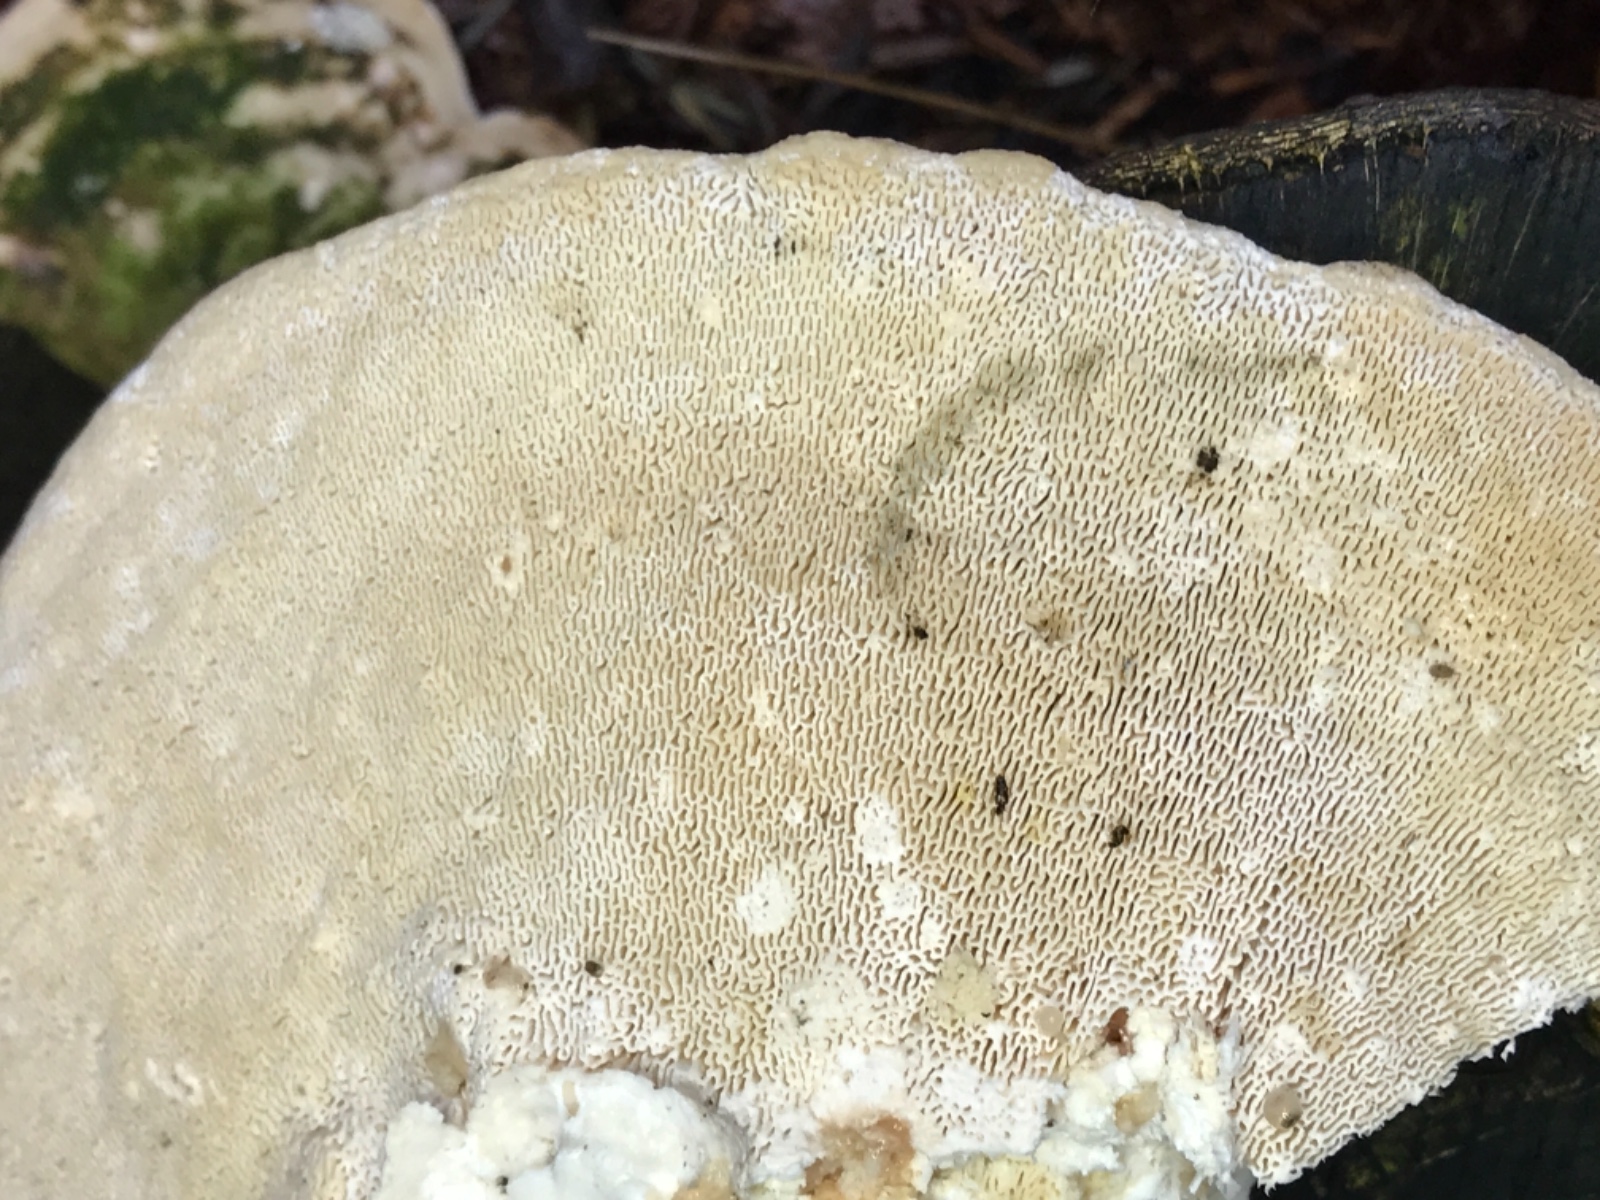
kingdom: Fungi
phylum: Basidiomycota
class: Agaricomycetes
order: Polyporales
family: Polyporaceae
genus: Trametes
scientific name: Trametes gibbosa
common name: puklet læderporesvamp
